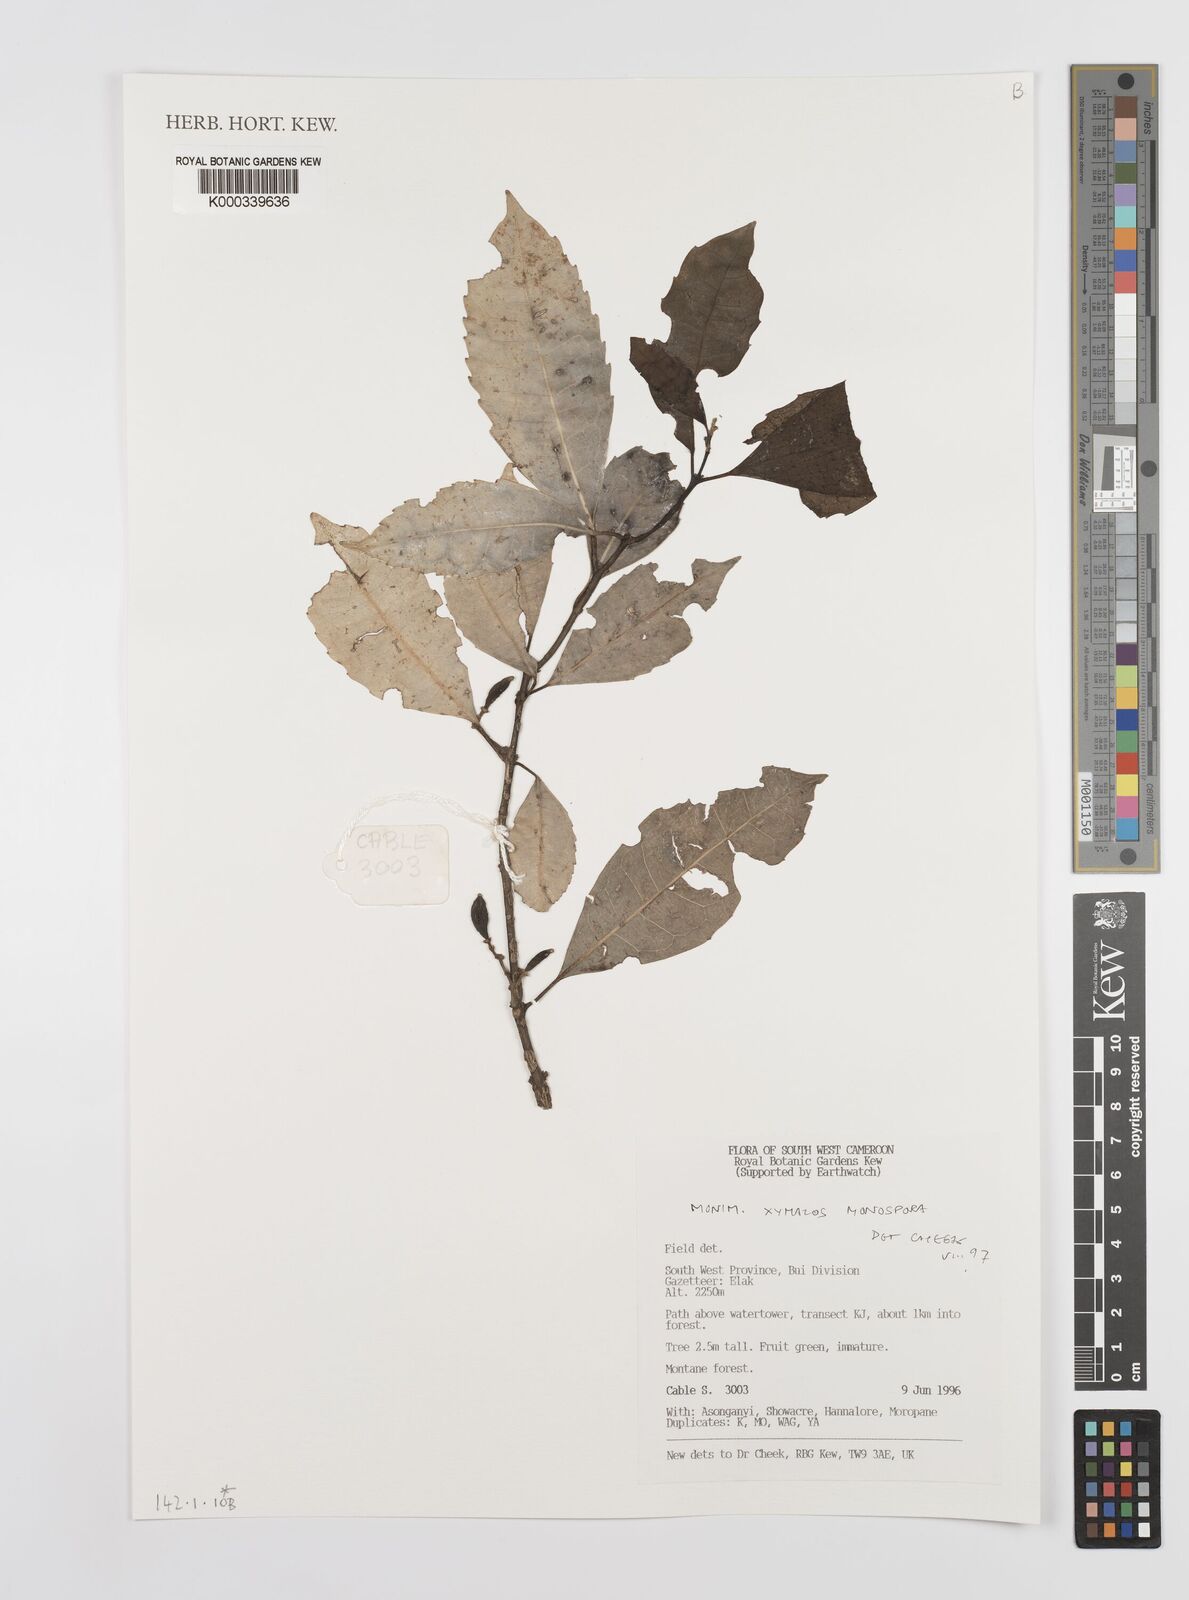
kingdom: Plantae
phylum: Tracheophyta
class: Magnoliopsida
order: Laurales
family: Monimiaceae
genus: Xymalos
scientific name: Xymalos
